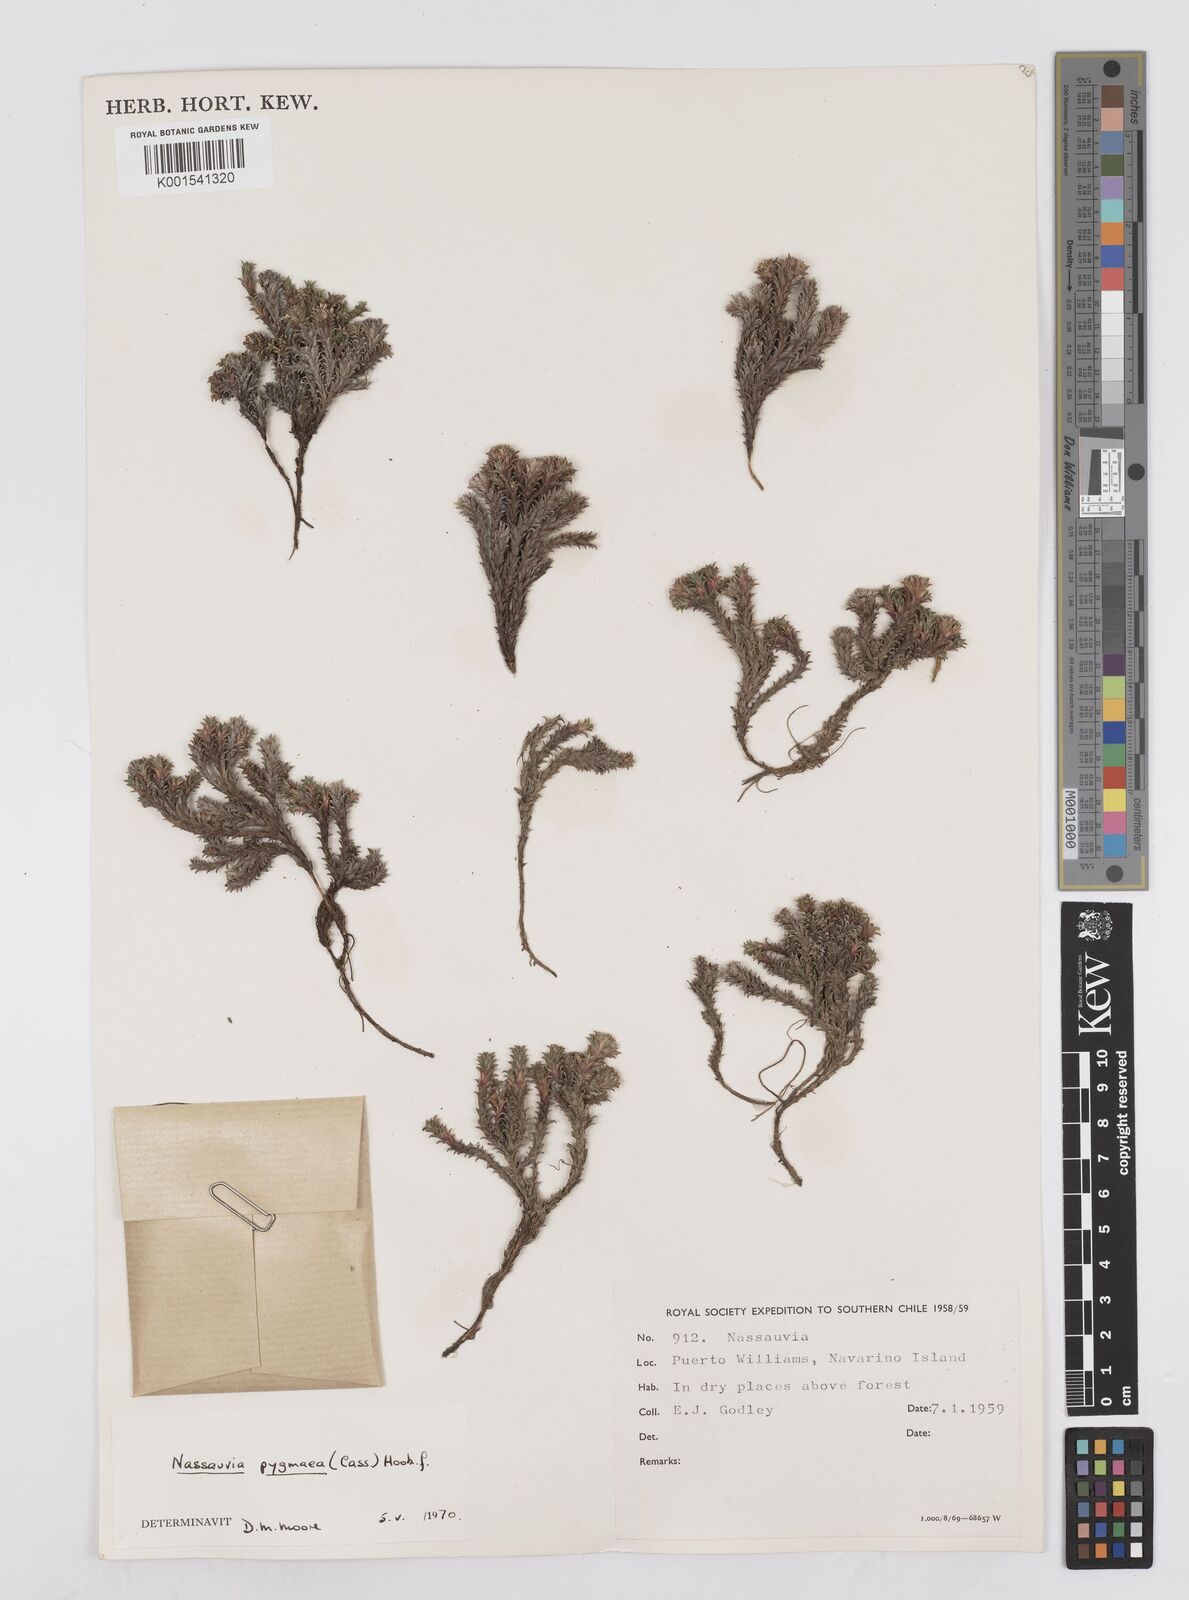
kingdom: Plantae
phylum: Tracheophyta
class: Magnoliopsida
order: Asterales
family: Asteraceae
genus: Nassauvia
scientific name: Nassauvia pygmaea
